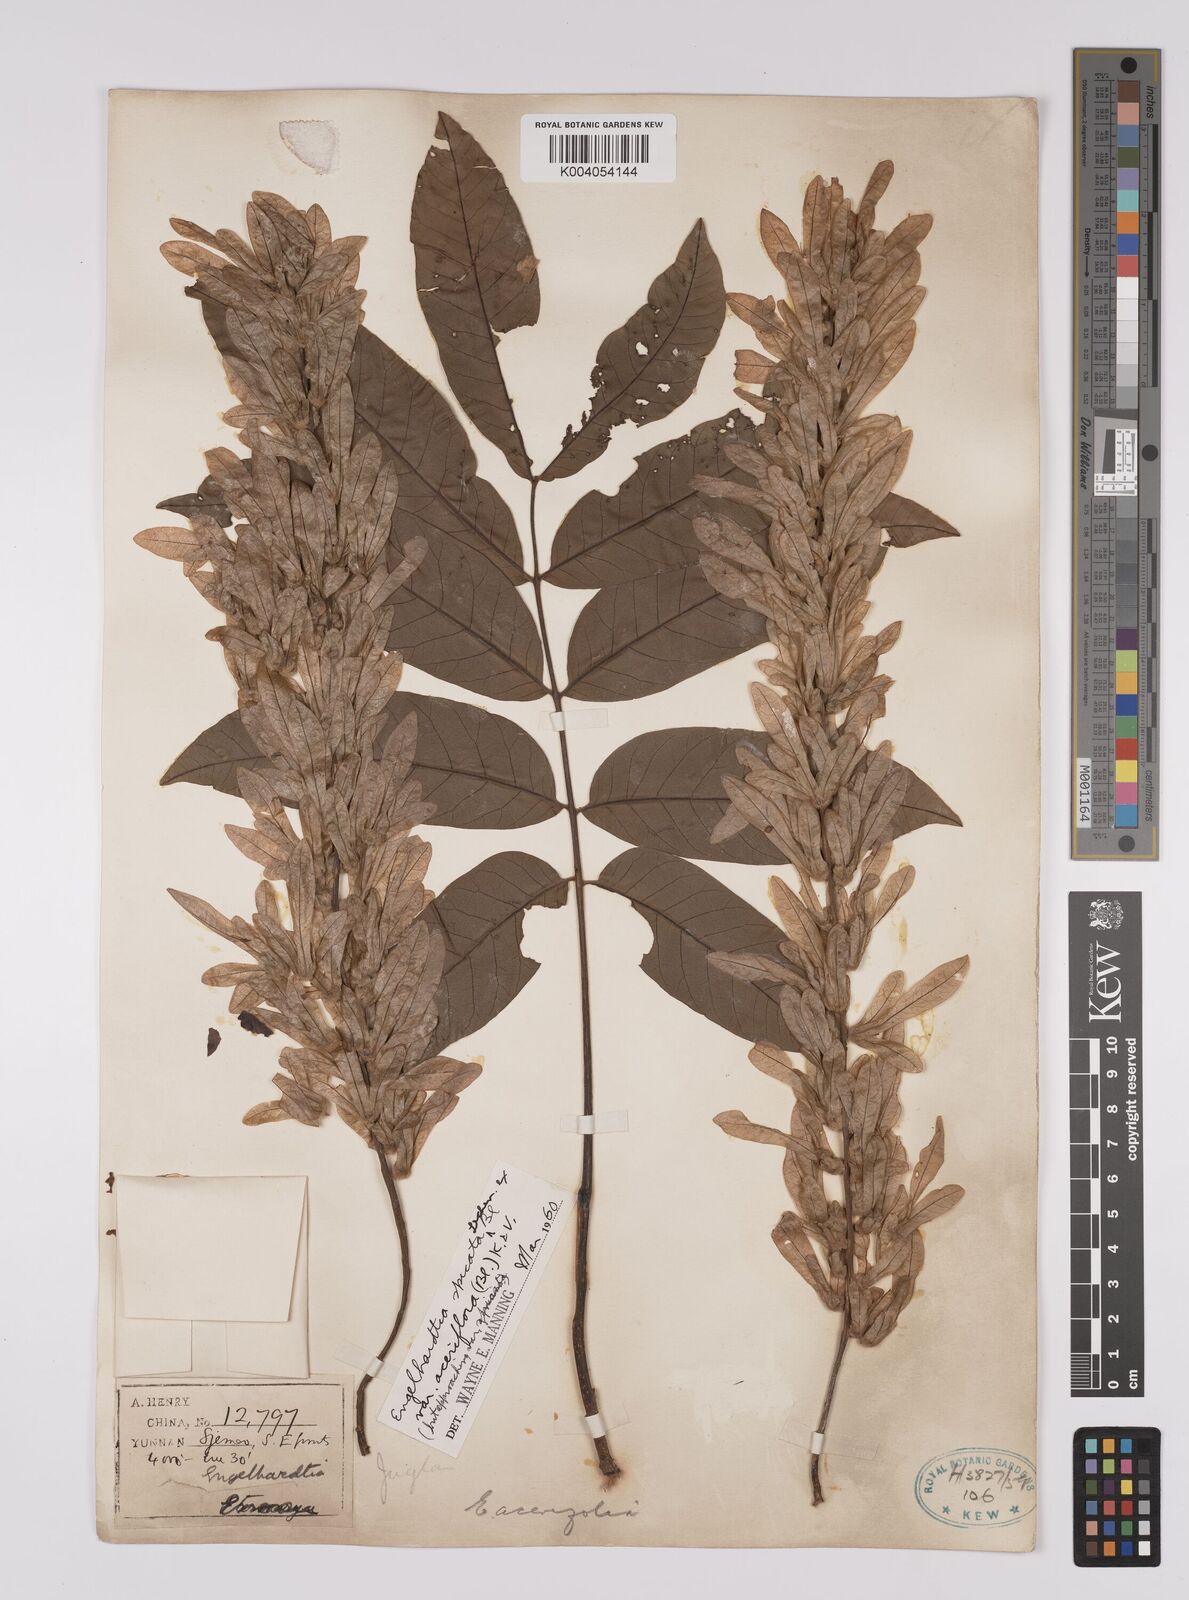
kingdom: Plantae
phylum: Tracheophyta
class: Magnoliopsida
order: Fagales
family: Juglandaceae
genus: Engelhardia
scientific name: Engelhardia spicata
